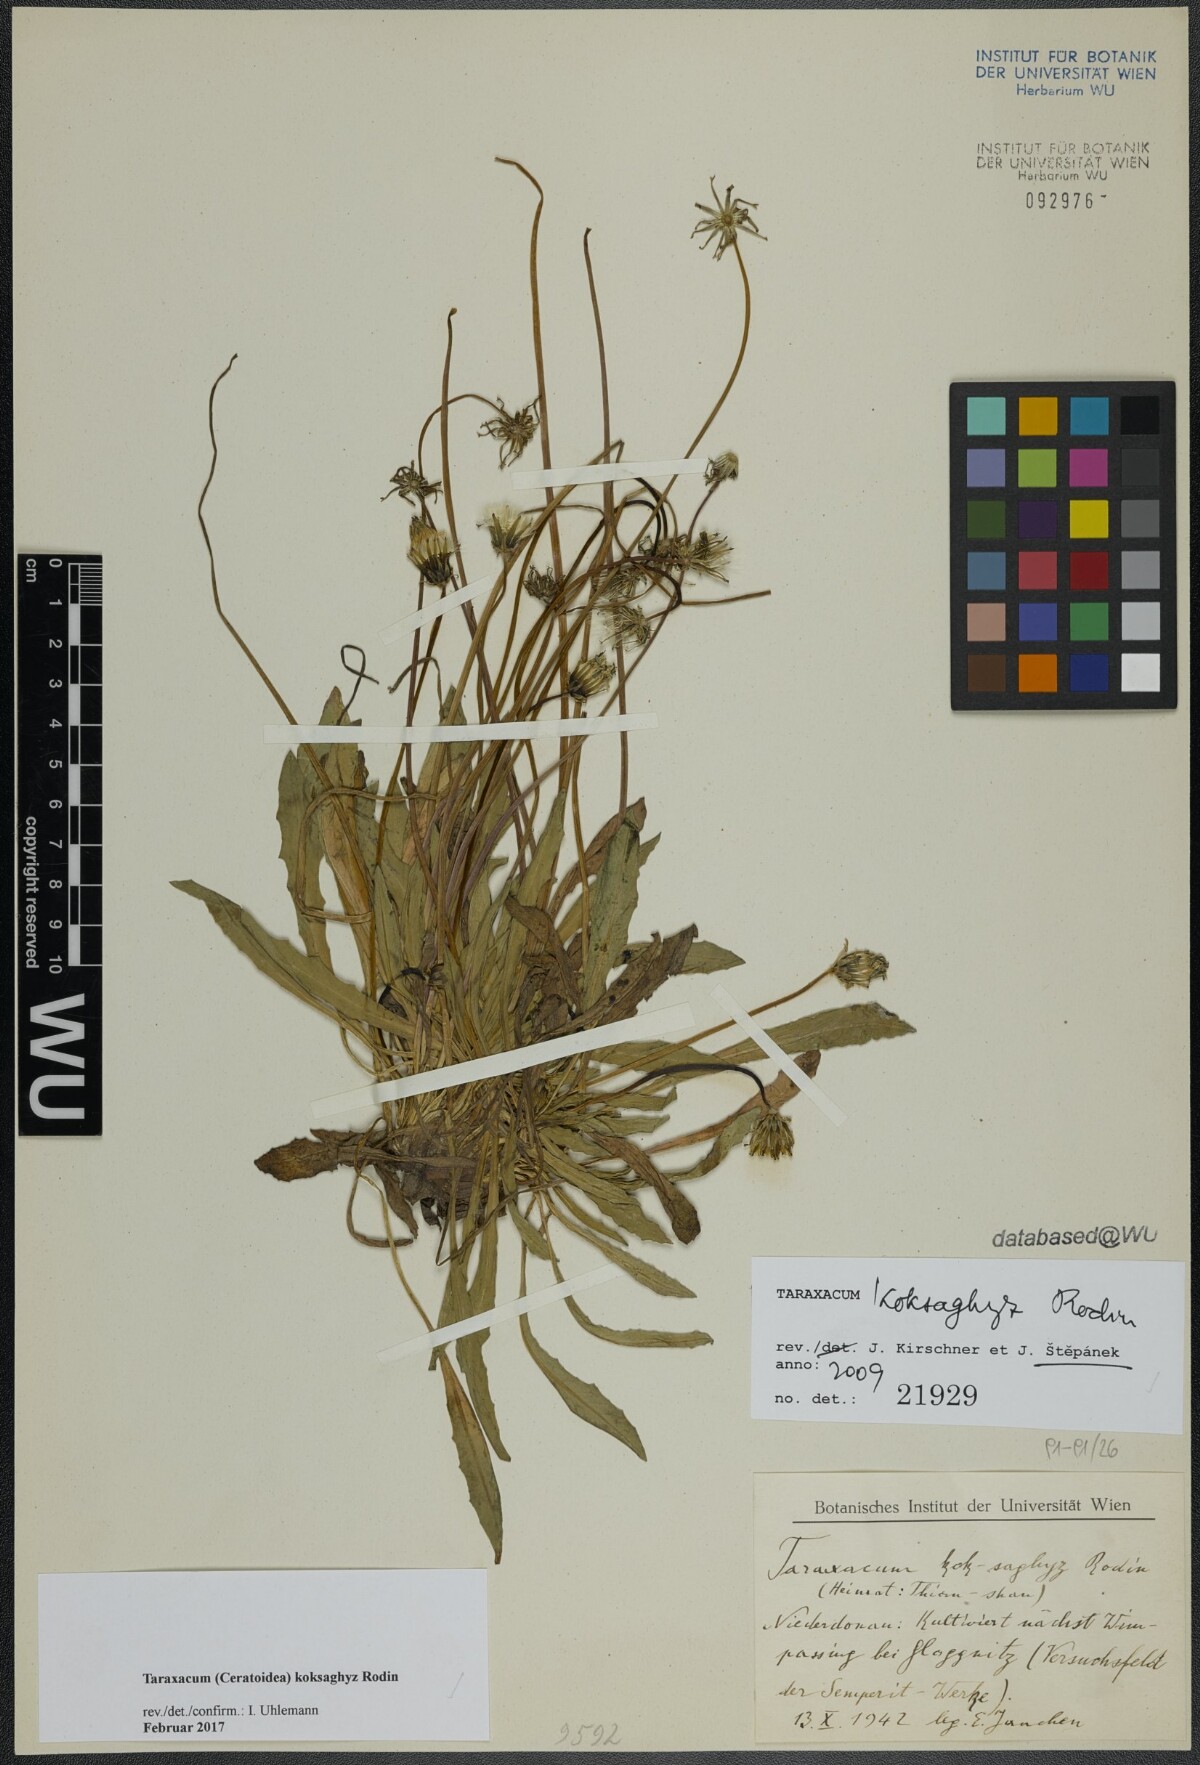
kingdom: Plantae
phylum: Tracheophyta
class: Magnoliopsida
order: Asterales
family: Asteraceae
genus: Taraxacum
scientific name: Taraxacum kok-saghyz
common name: Russian dandelion
